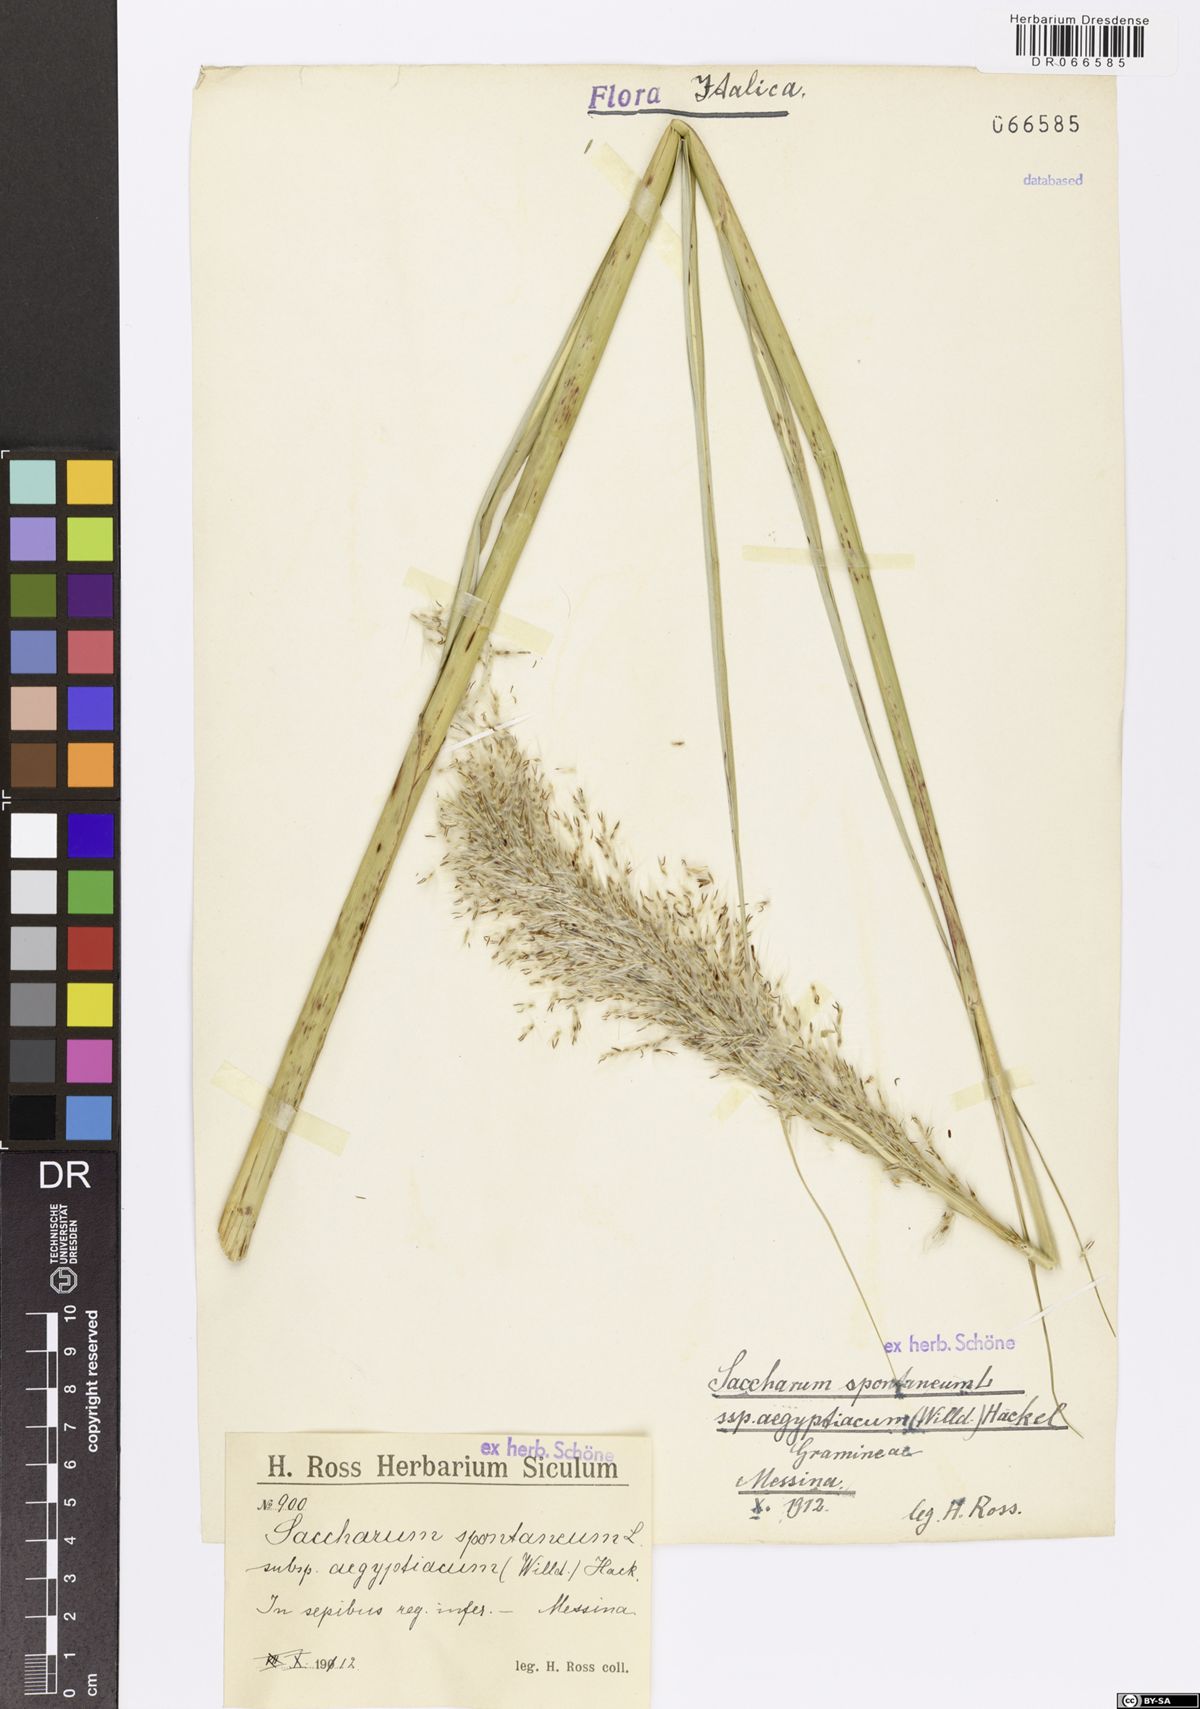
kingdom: Plantae
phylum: Tracheophyta
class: Liliopsida
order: Poales
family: Poaceae
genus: Saccharum
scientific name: Saccharum spontaneum
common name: Wild sugarcane
